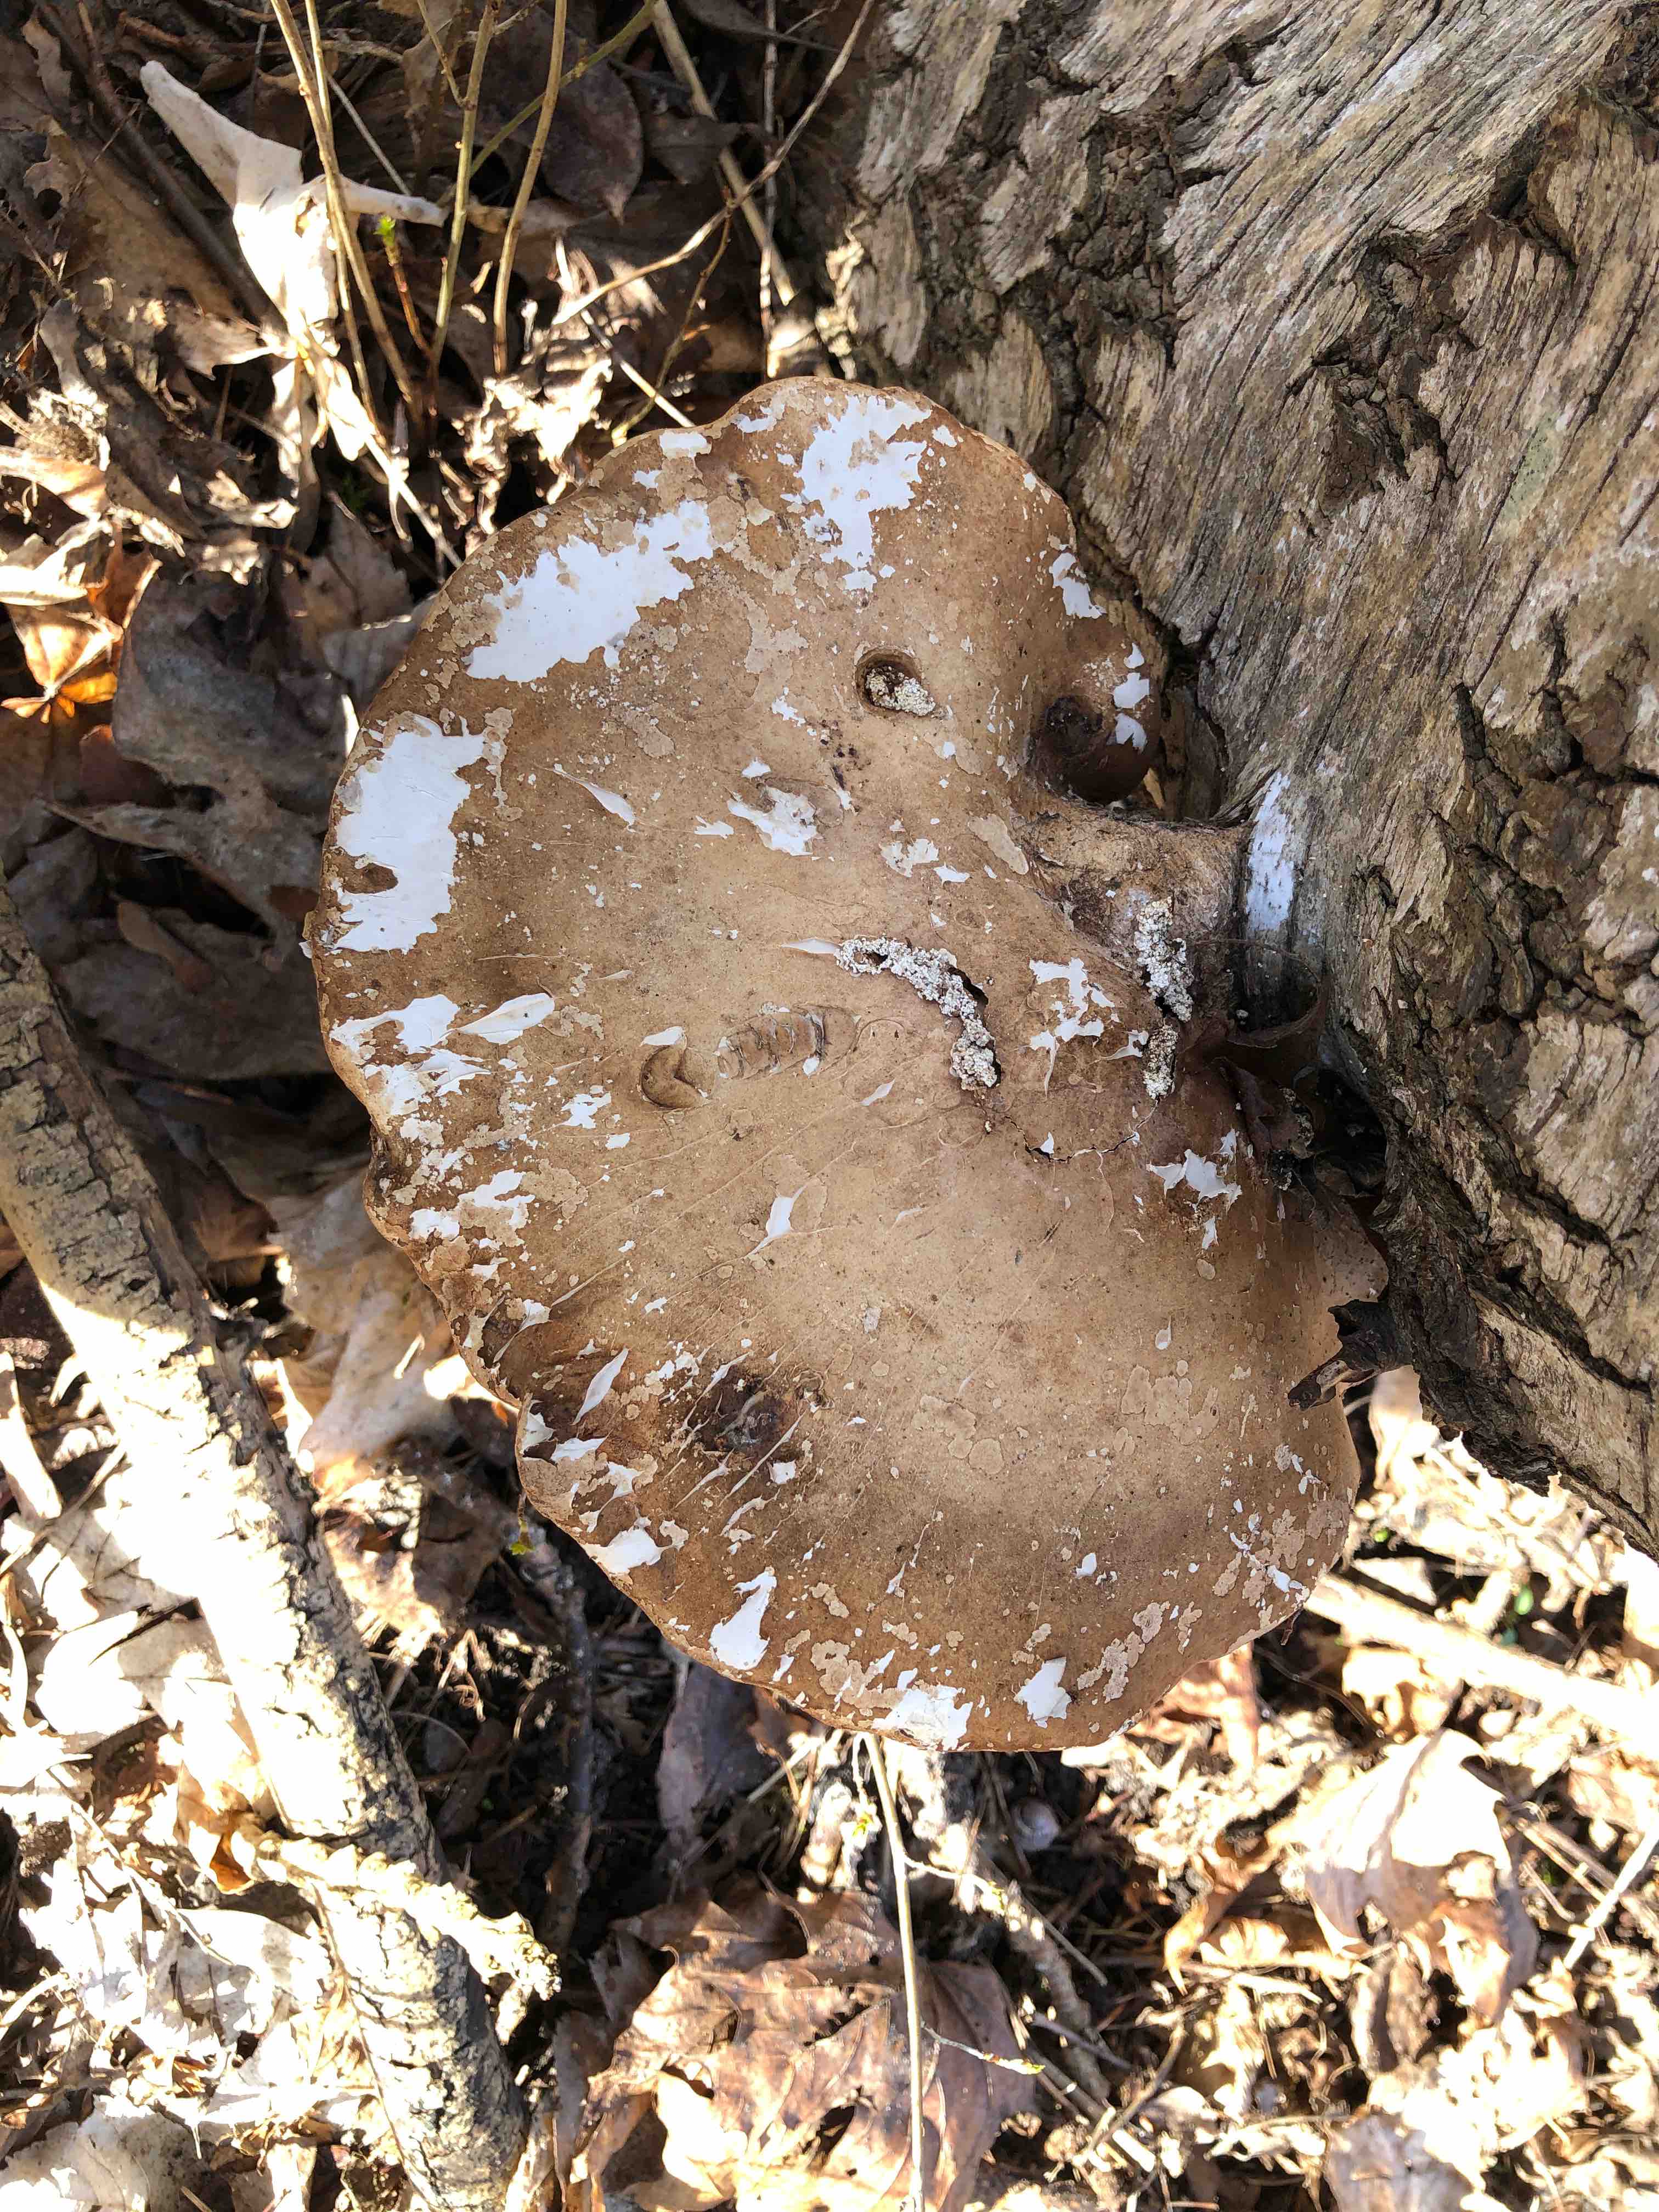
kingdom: Fungi
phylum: Basidiomycota
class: Agaricomycetes
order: Polyporales
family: Fomitopsidaceae
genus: Fomitopsis
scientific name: Fomitopsis betulina
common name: birkeporesvamp
